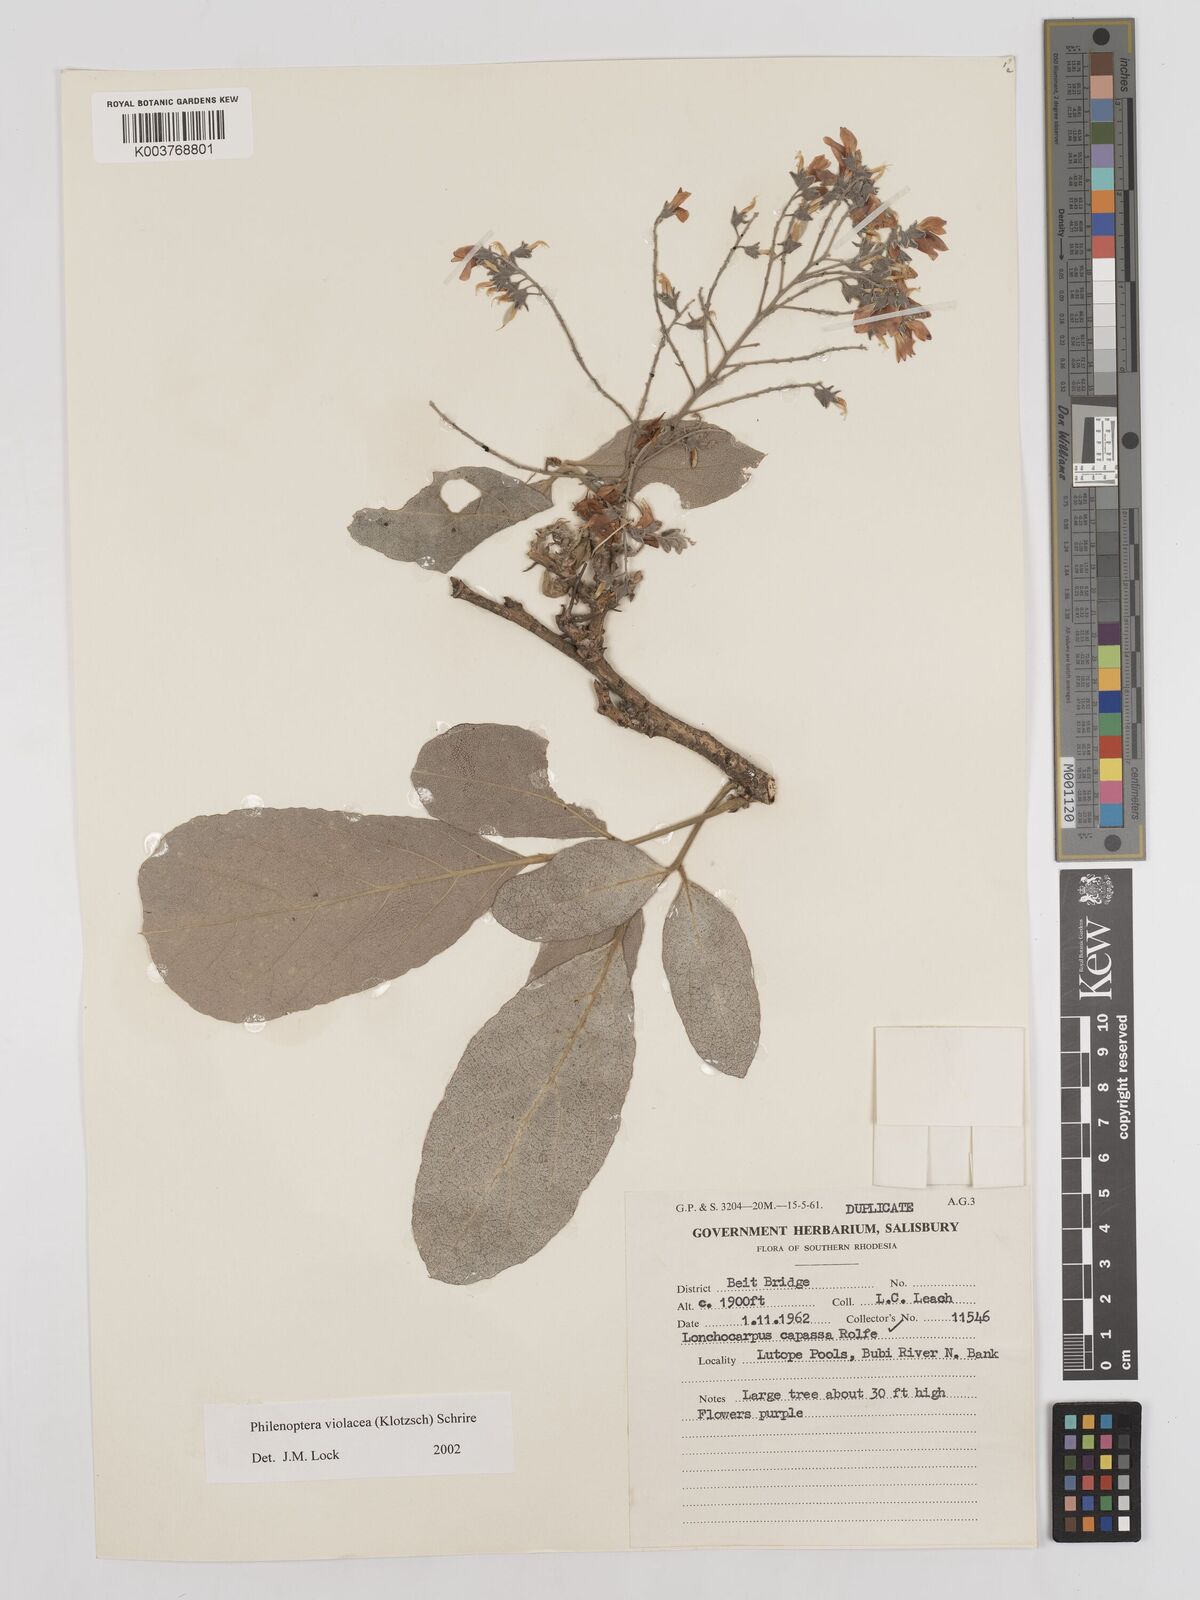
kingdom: Plantae
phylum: Tracheophyta
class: Magnoliopsida
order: Fabales
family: Fabaceae
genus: Philenoptera
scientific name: Philenoptera violacea
